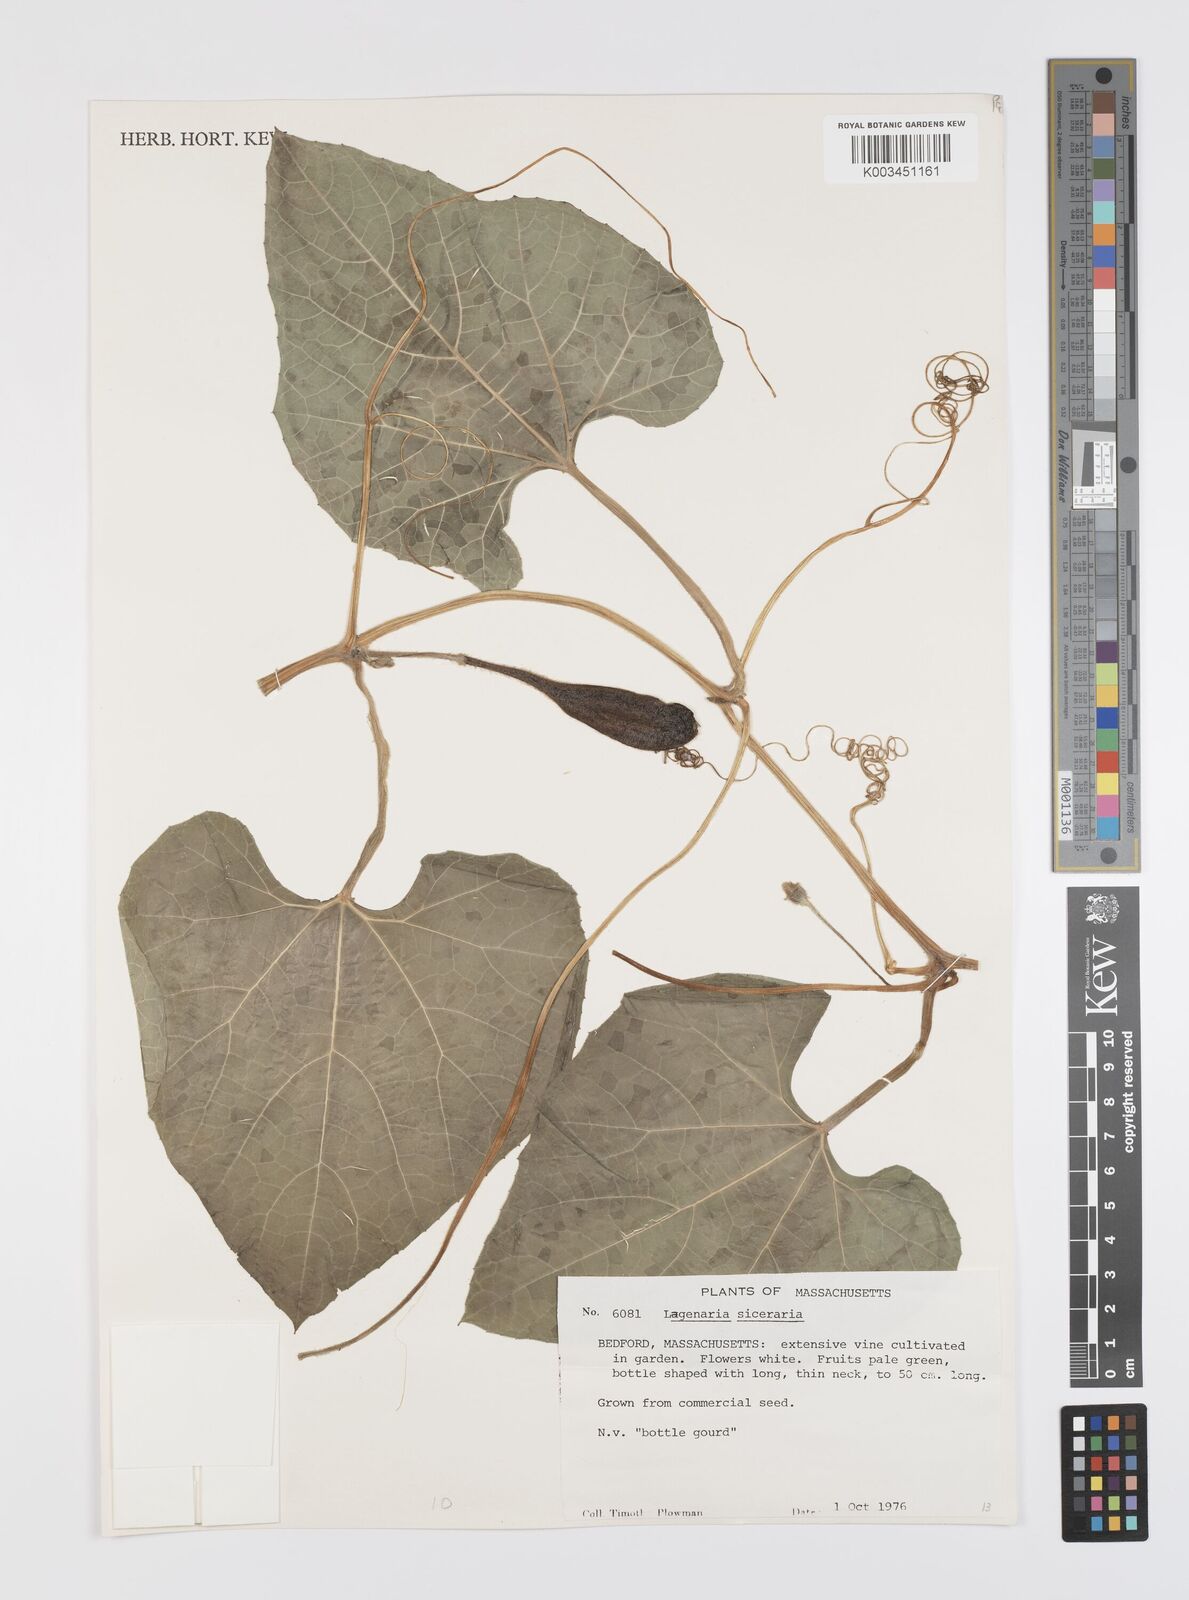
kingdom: Plantae
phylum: Tracheophyta
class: Magnoliopsida
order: Cucurbitales
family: Cucurbitaceae
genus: Lagenaria
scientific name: Lagenaria siceraria
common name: Bottle gourd
